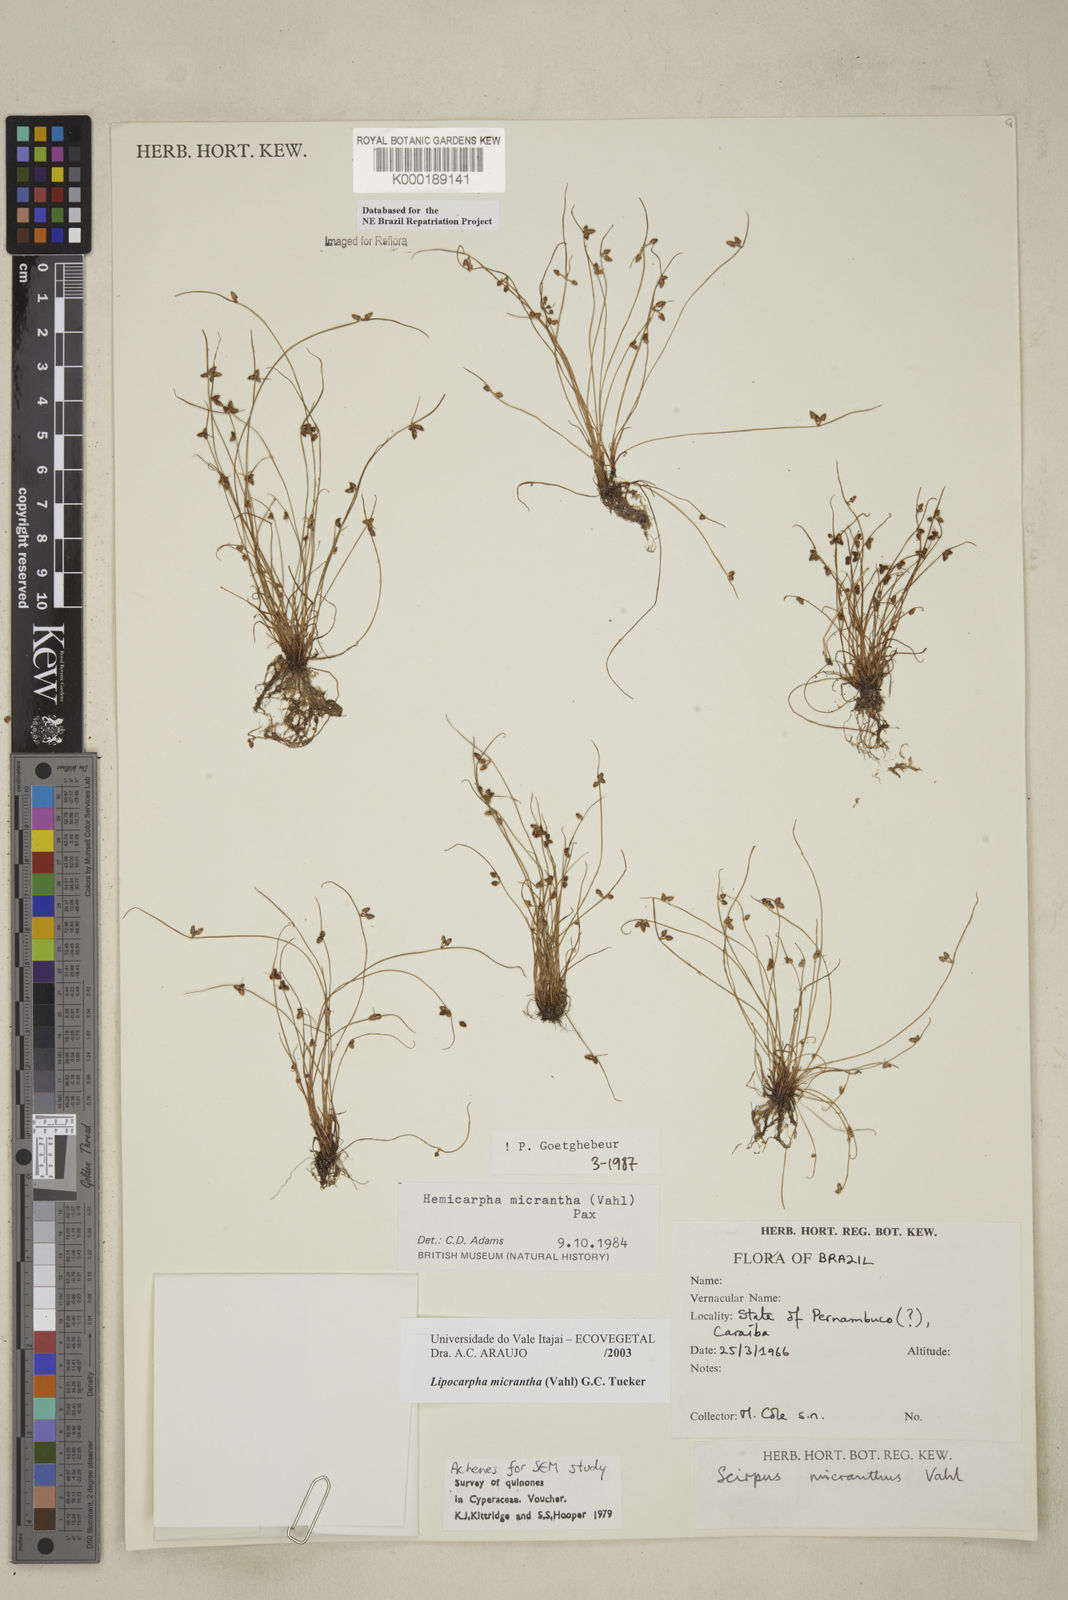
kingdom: Plantae
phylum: Tracheophyta
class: Liliopsida
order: Poales
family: Cyperaceae
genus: Cyperus
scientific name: Cyperus subsquarrosus
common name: Dwarf bulrush
